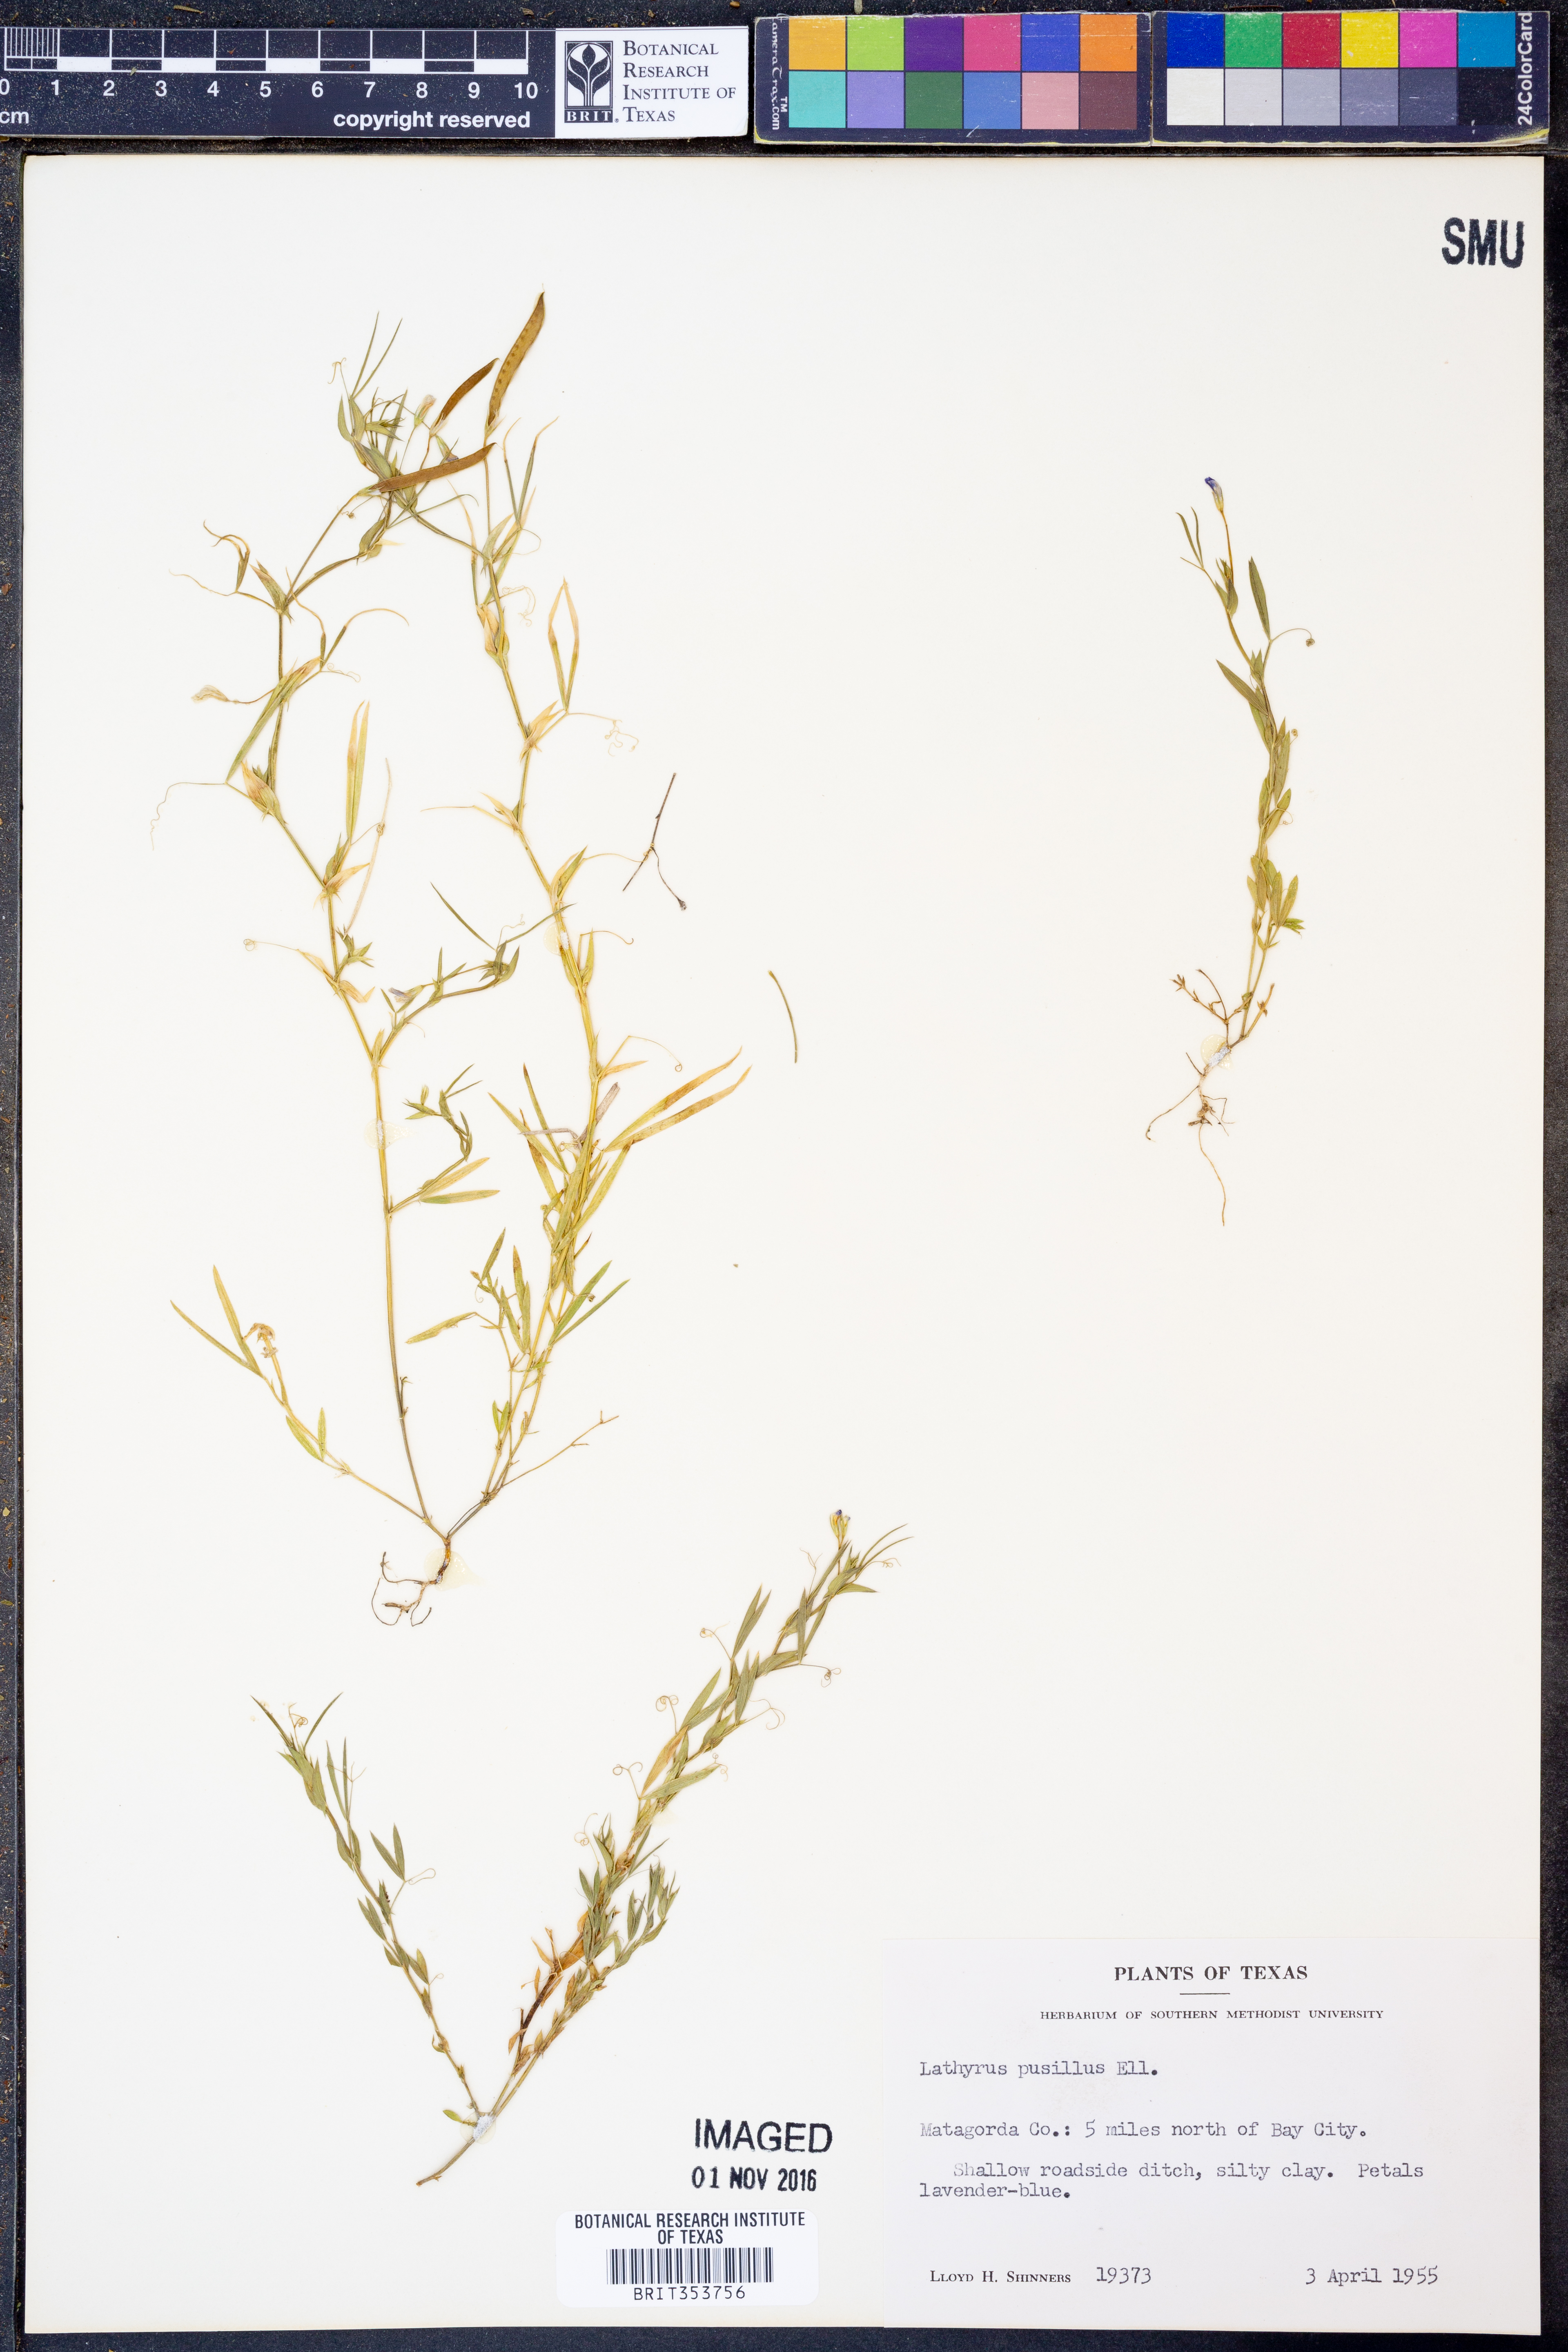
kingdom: Plantae
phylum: Tracheophyta
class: Magnoliopsida
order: Fabales
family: Fabaceae
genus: Lathyrus
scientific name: Lathyrus pusillus
